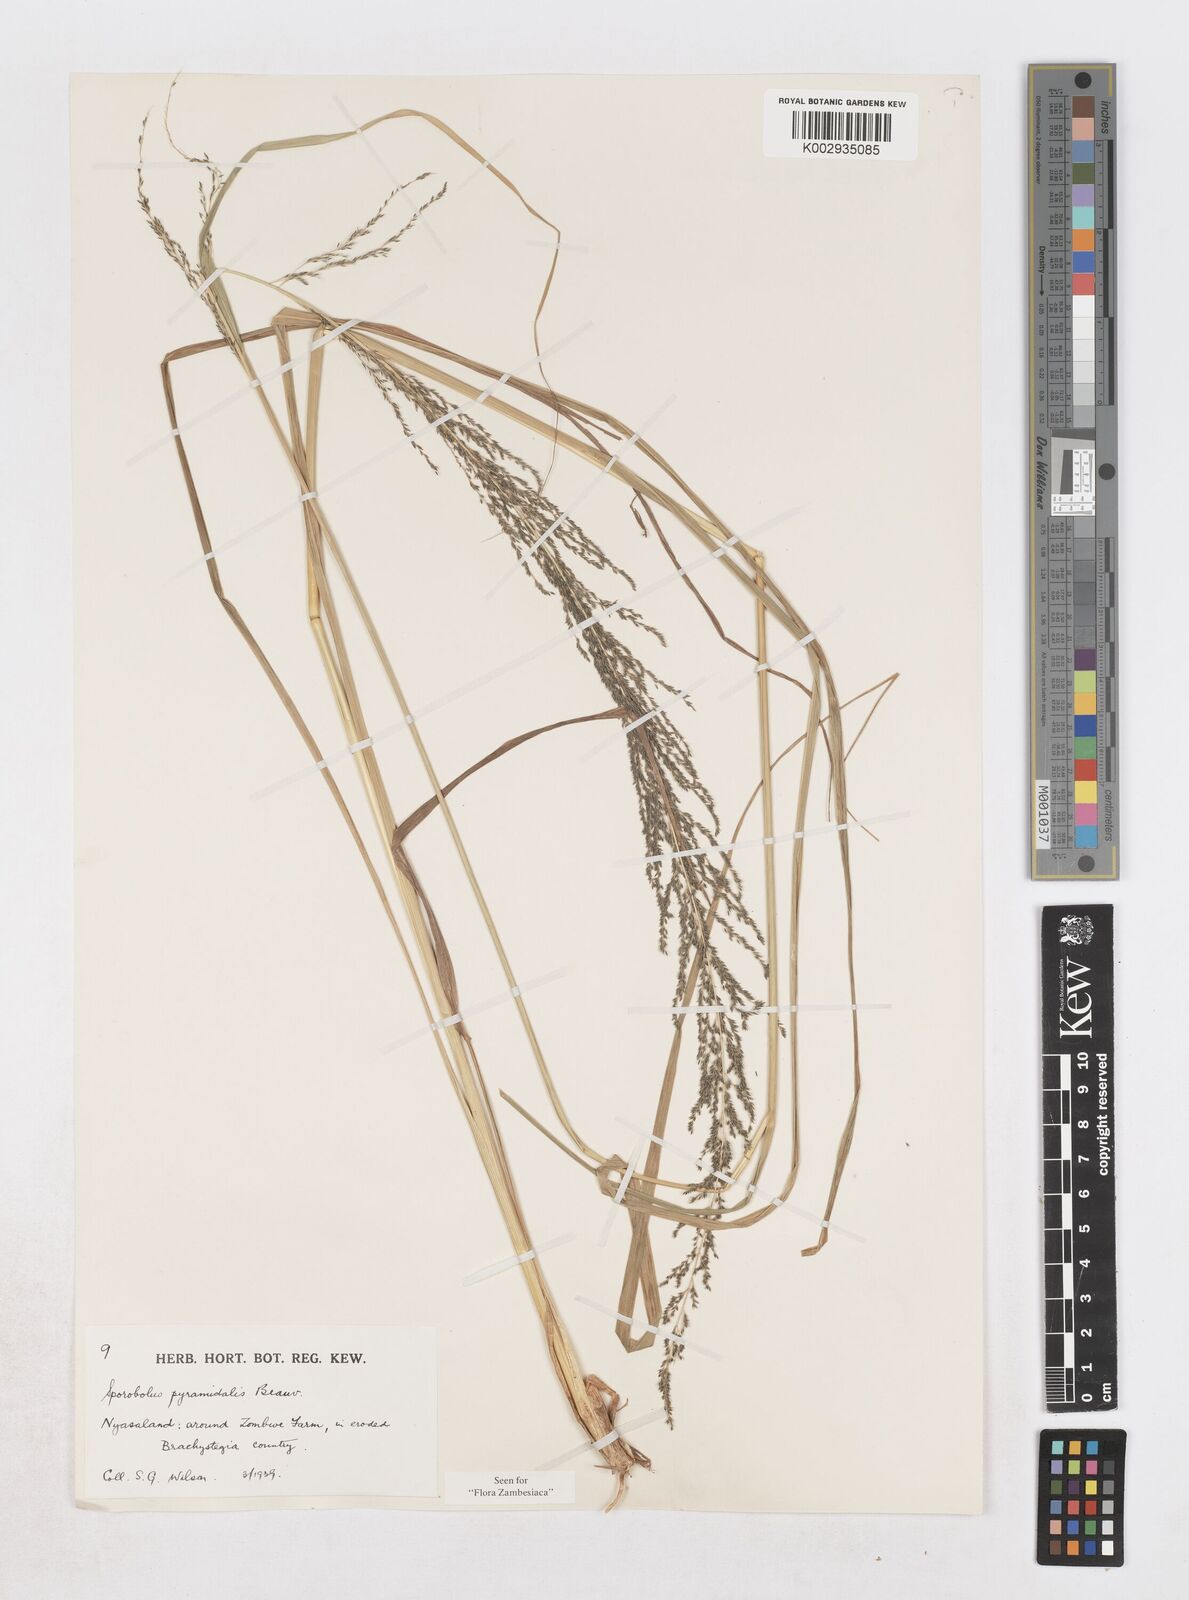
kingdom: Plantae
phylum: Tracheophyta
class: Liliopsida
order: Poales
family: Poaceae
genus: Sporobolus
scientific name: Sporobolus pyramidalis
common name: West indian dropseed
